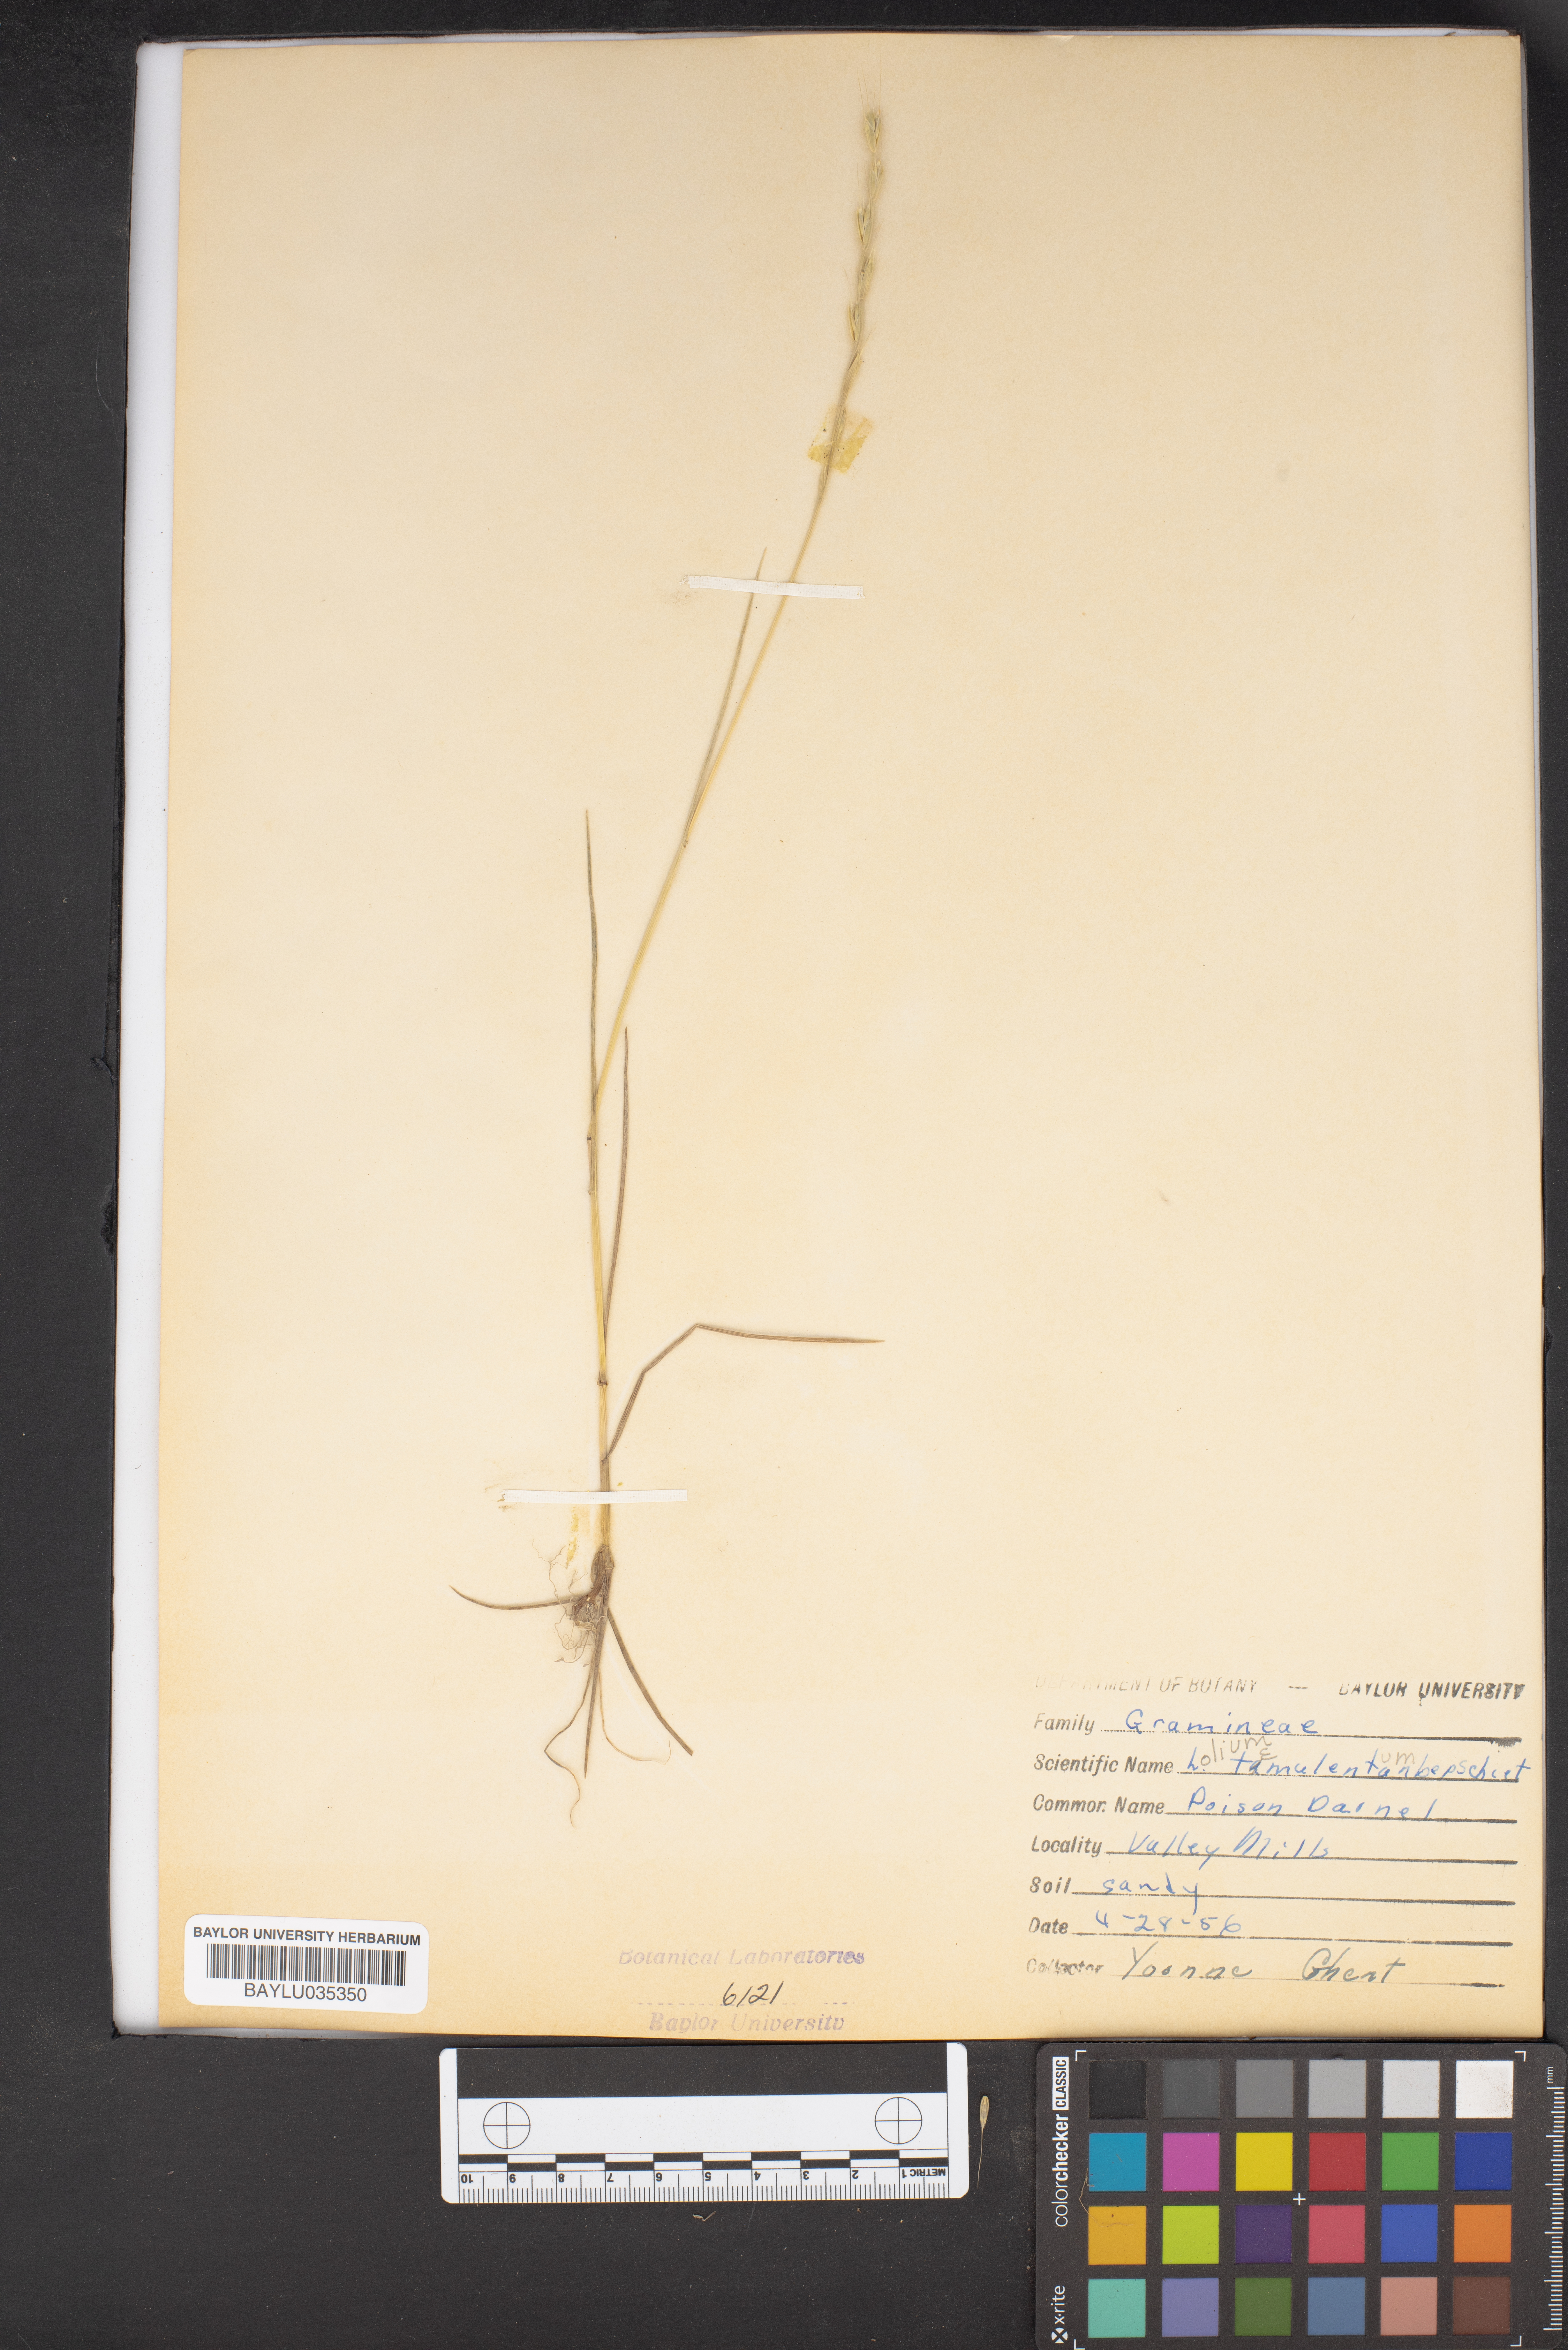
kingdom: Plantae
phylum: Tracheophyta
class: Liliopsida
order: Poales
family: Poaceae
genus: Lolium
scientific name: Lolium temulentum
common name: Darnel
